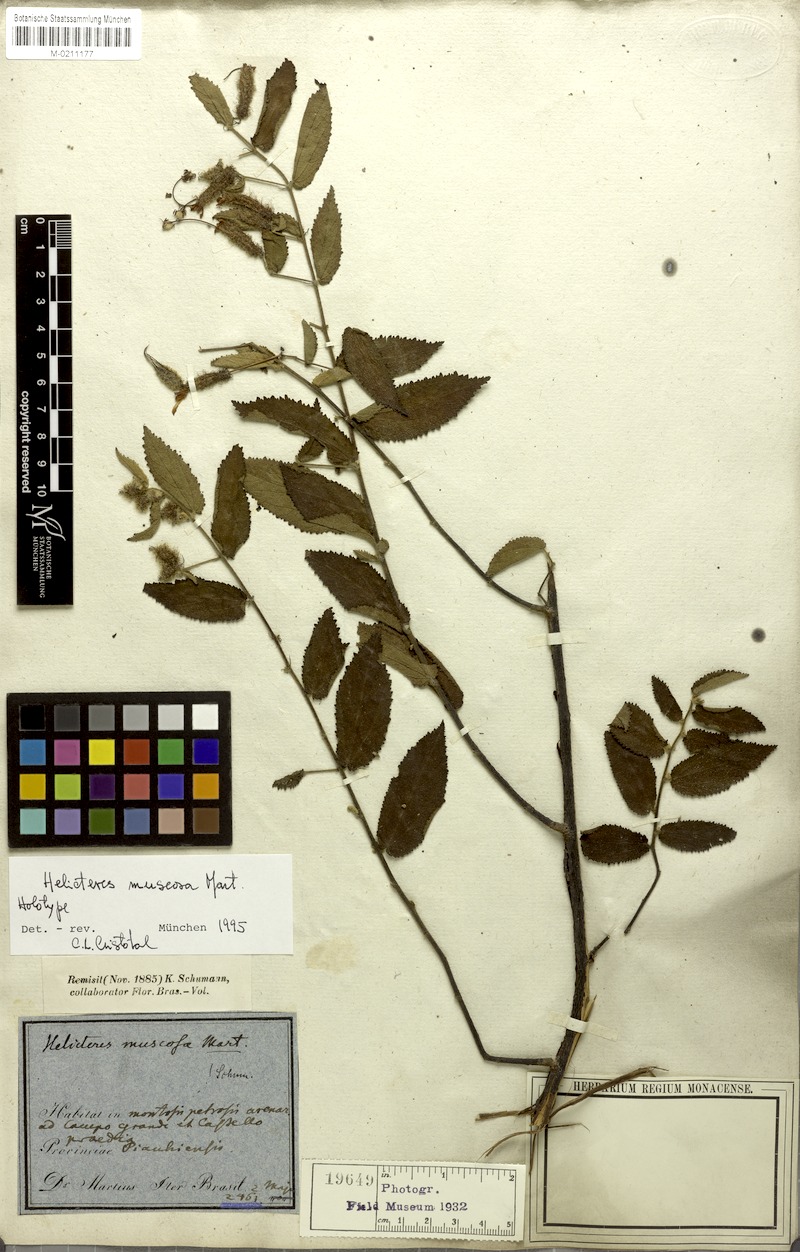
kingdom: Plantae
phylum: Tracheophyta
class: Magnoliopsida
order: Malvales
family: Malvaceae
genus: Helicteres
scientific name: Helicteres muscosa
